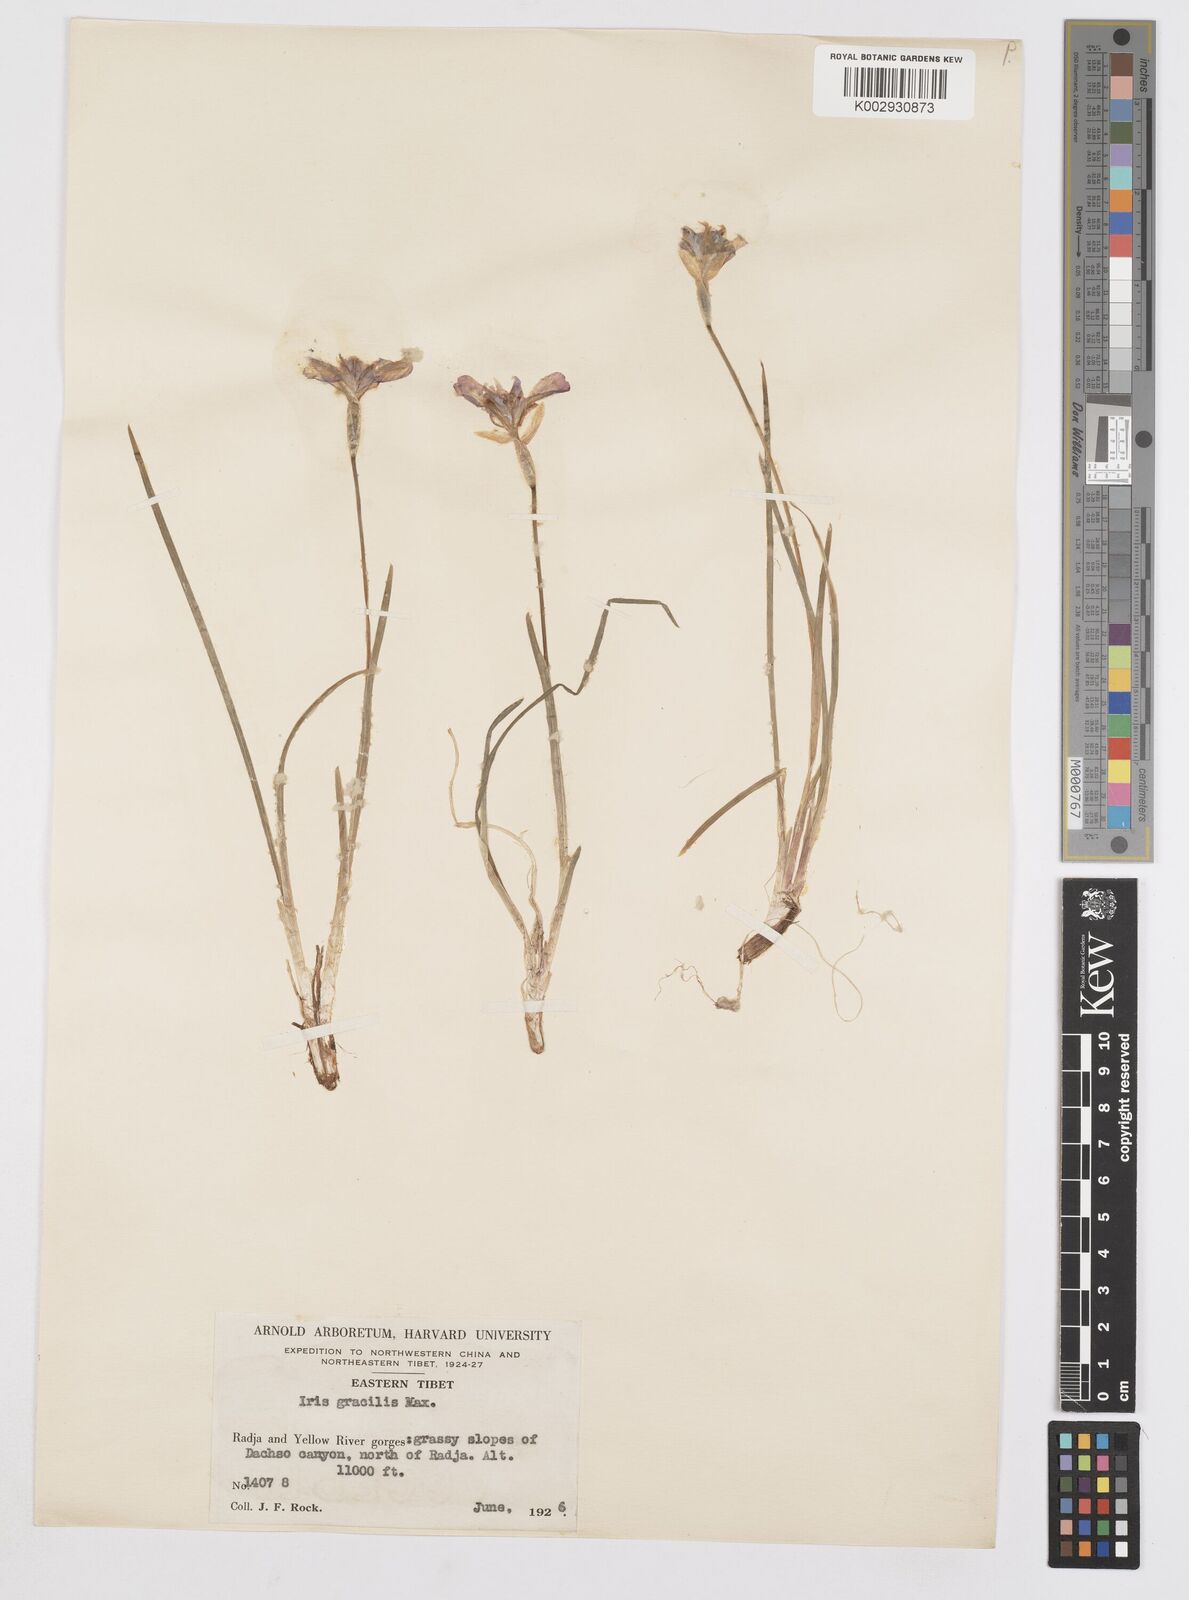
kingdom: Plantae
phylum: Tracheophyta
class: Liliopsida
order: Asparagales
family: Iridaceae
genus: Iris
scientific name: Iris goniocarpa
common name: Angular-fruit iris
